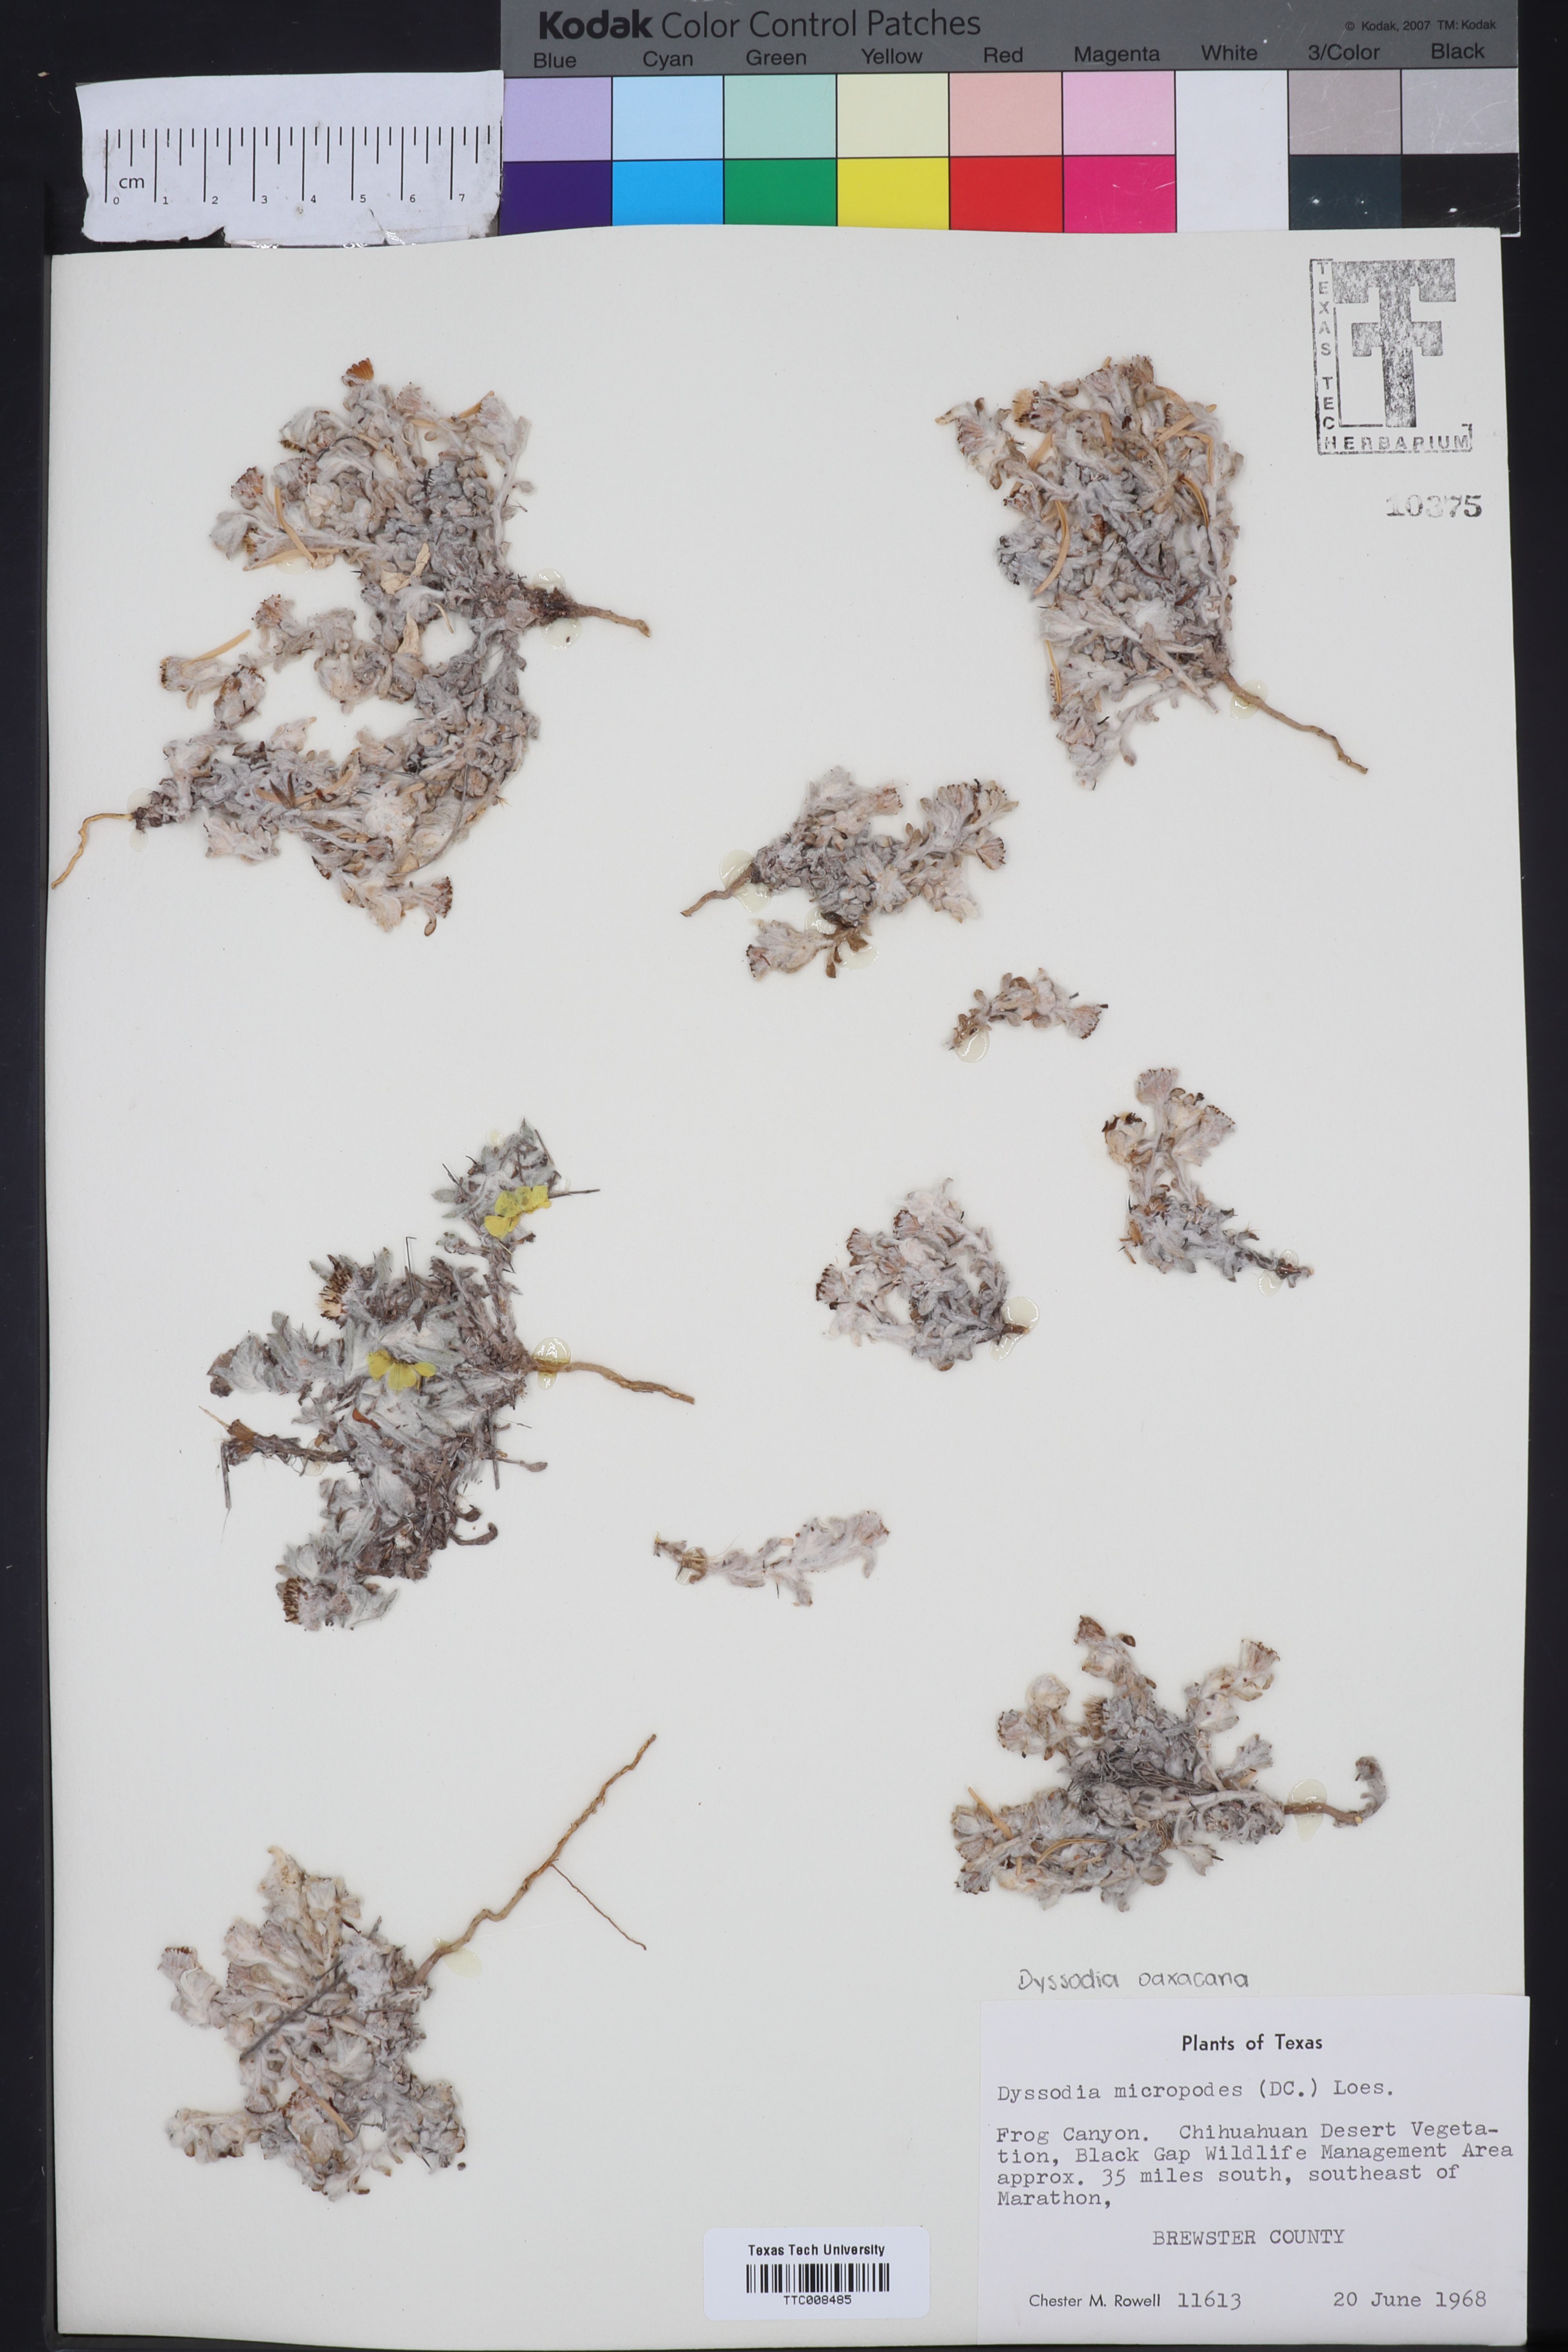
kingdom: Plantae
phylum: Tracheophyta
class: Magnoliopsida
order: Asterales
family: Asteraceae
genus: Thymophylla
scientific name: Thymophylla micropoides
